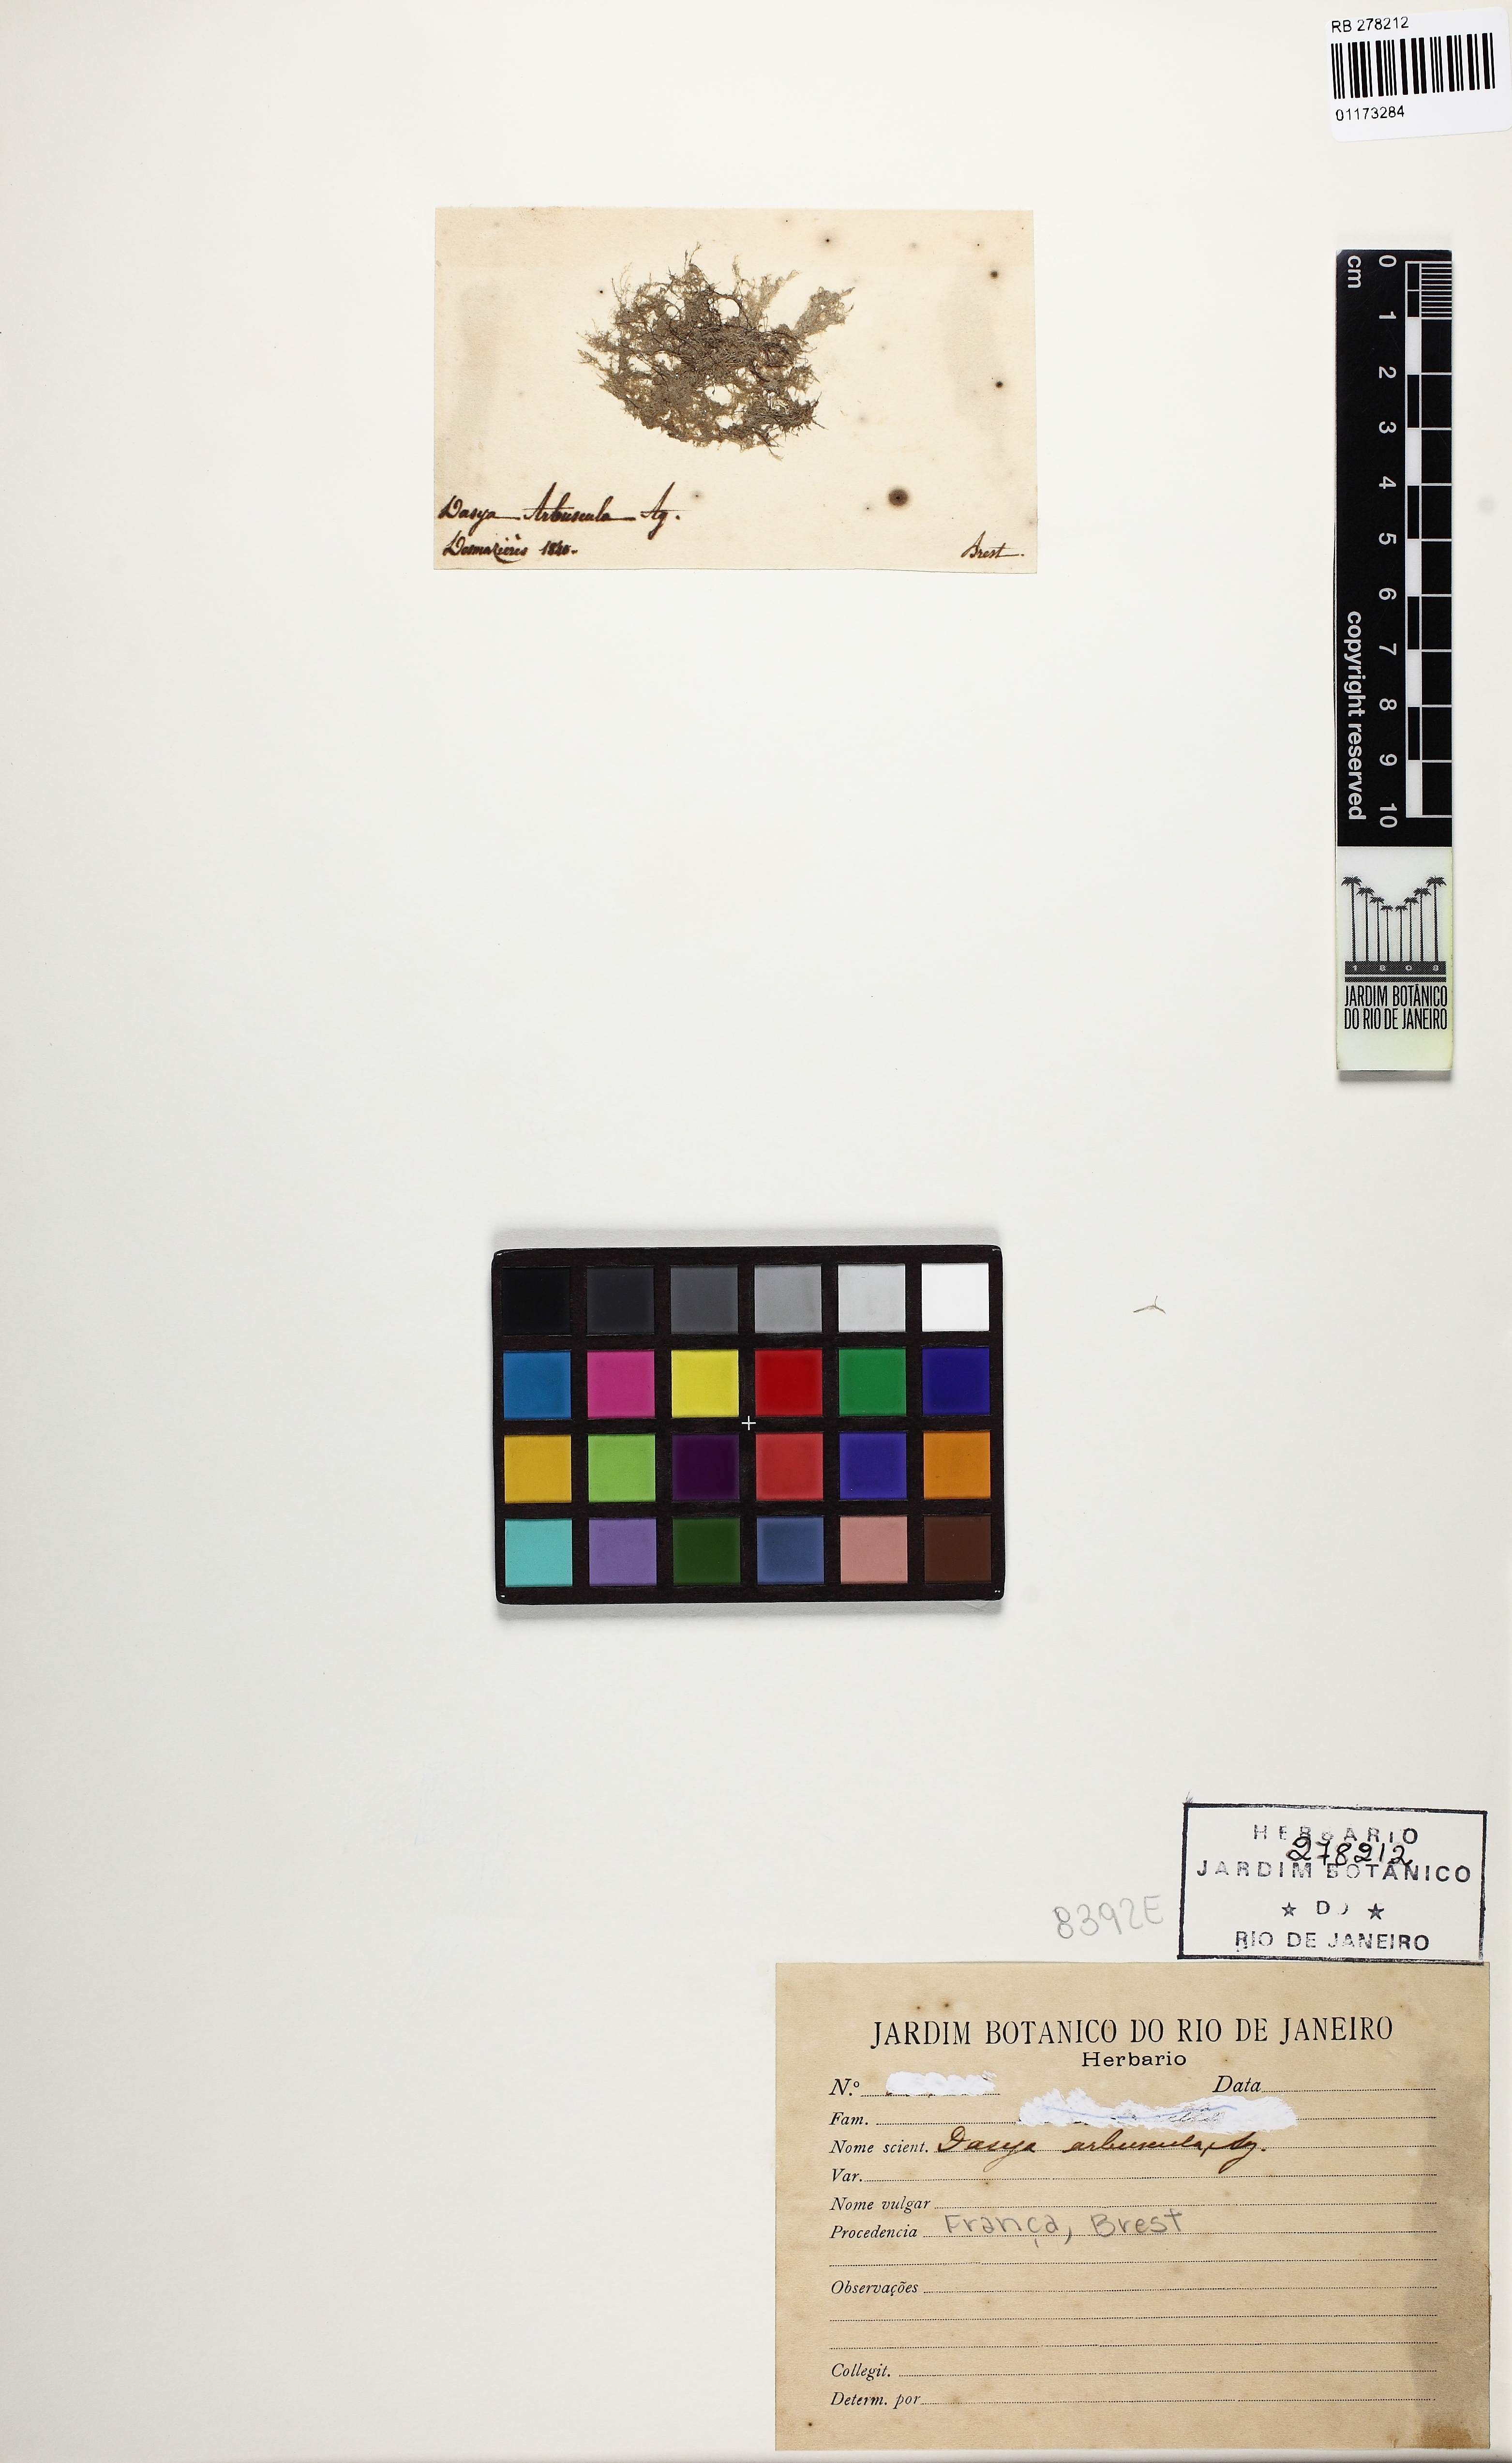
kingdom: Plantae
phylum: Rhodophyta
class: Florideophyceae
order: Ceramiales
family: Dasyaceae
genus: Dasya
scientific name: Dasya hutchinsiae
